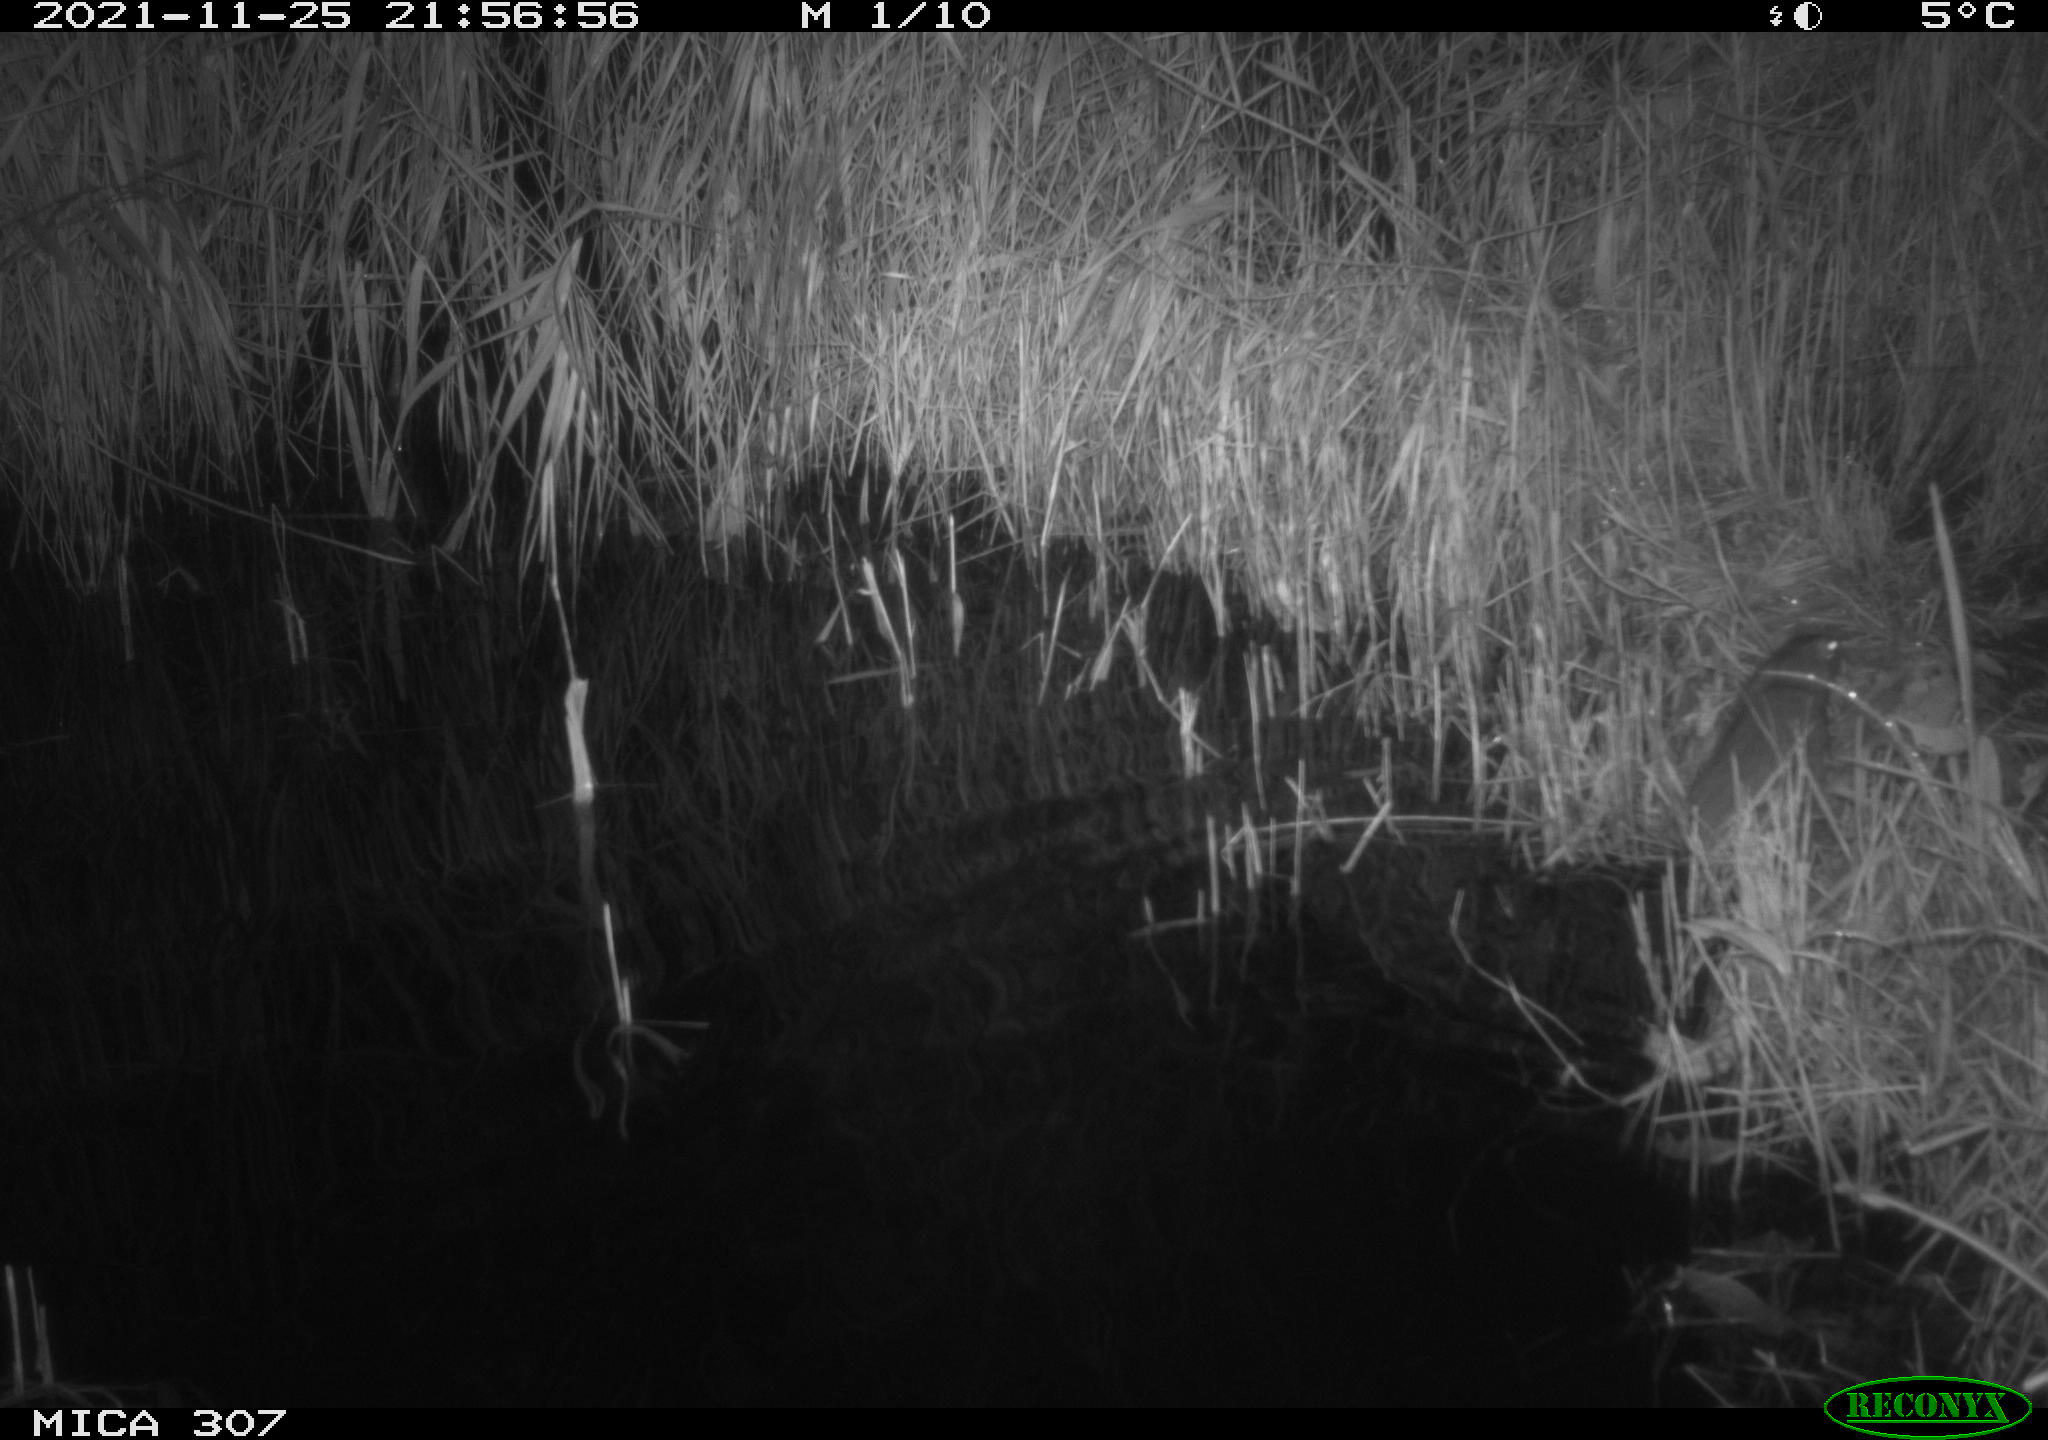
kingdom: Animalia
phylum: Chordata
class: Mammalia
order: Rodentia
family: Muridae
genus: Rattus
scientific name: Rattus norvegicus
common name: Brown rat
